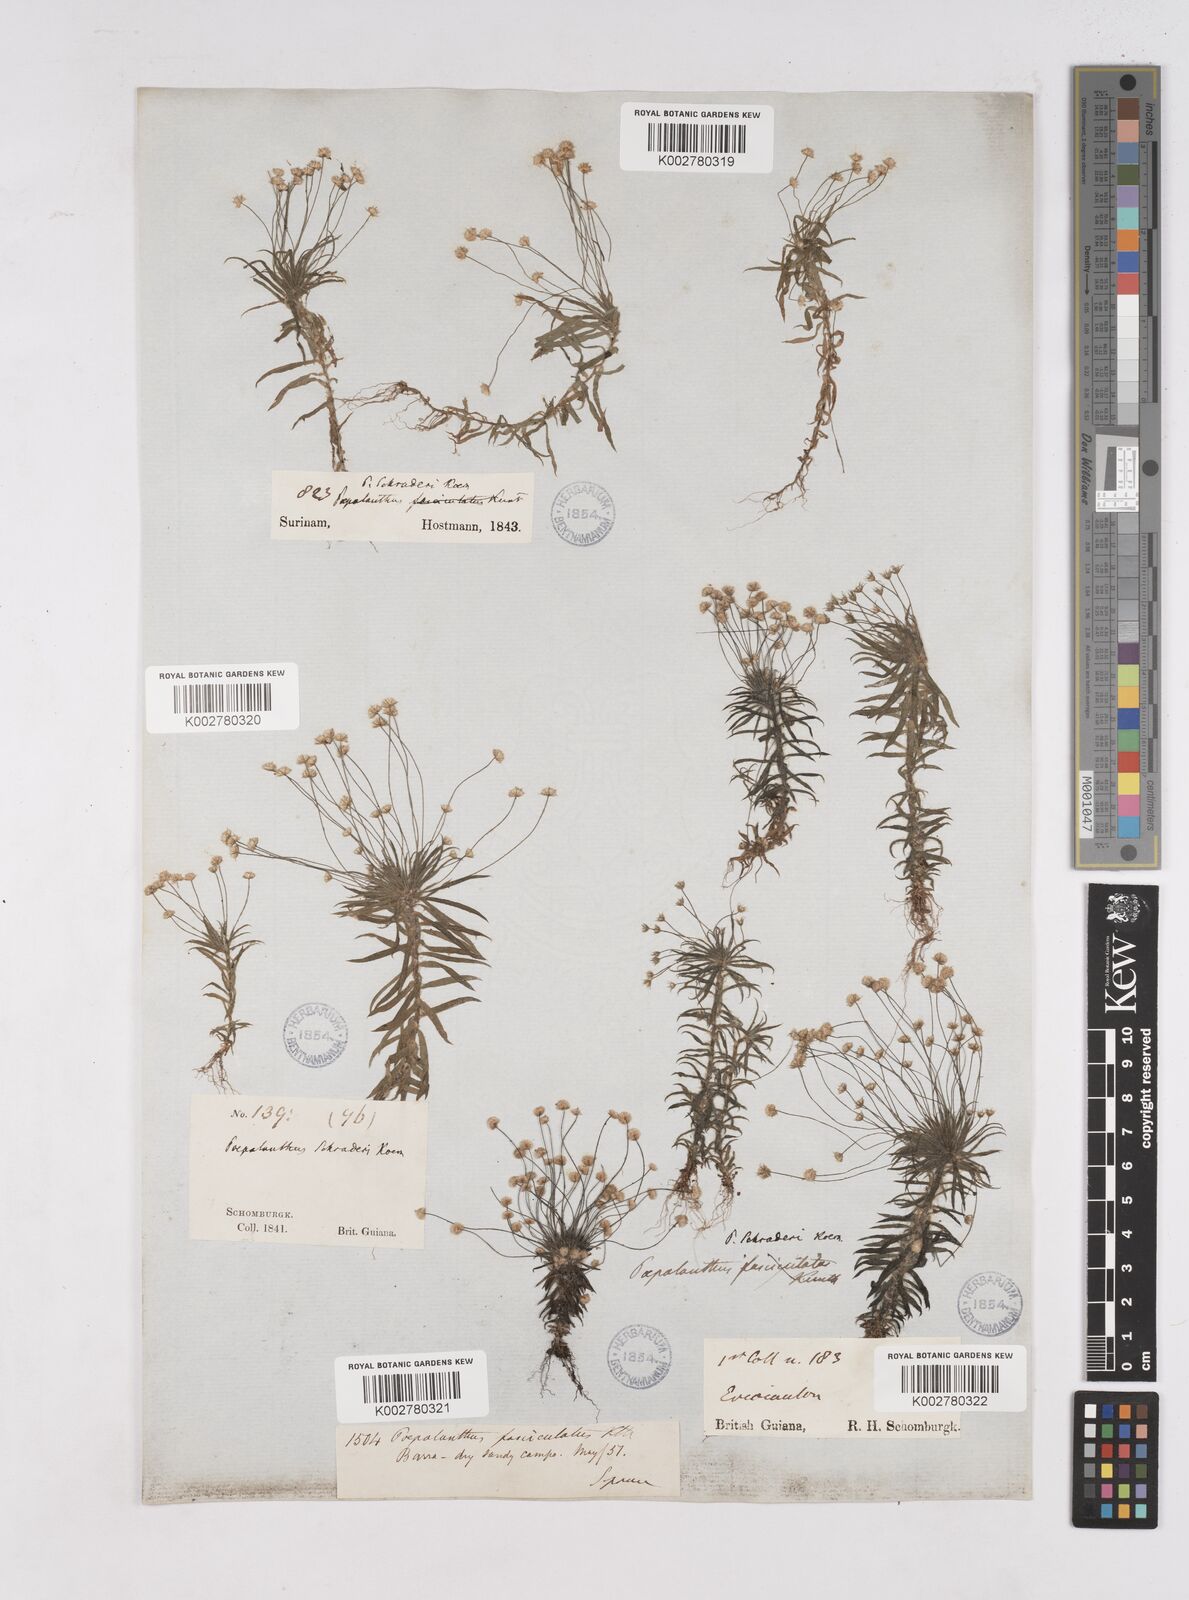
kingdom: Plantae
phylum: Tracheophyta
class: Liliopsida
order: Poales
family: Eriocaulaceae
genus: Paepalanthus
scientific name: Paepalanthus bifidus
